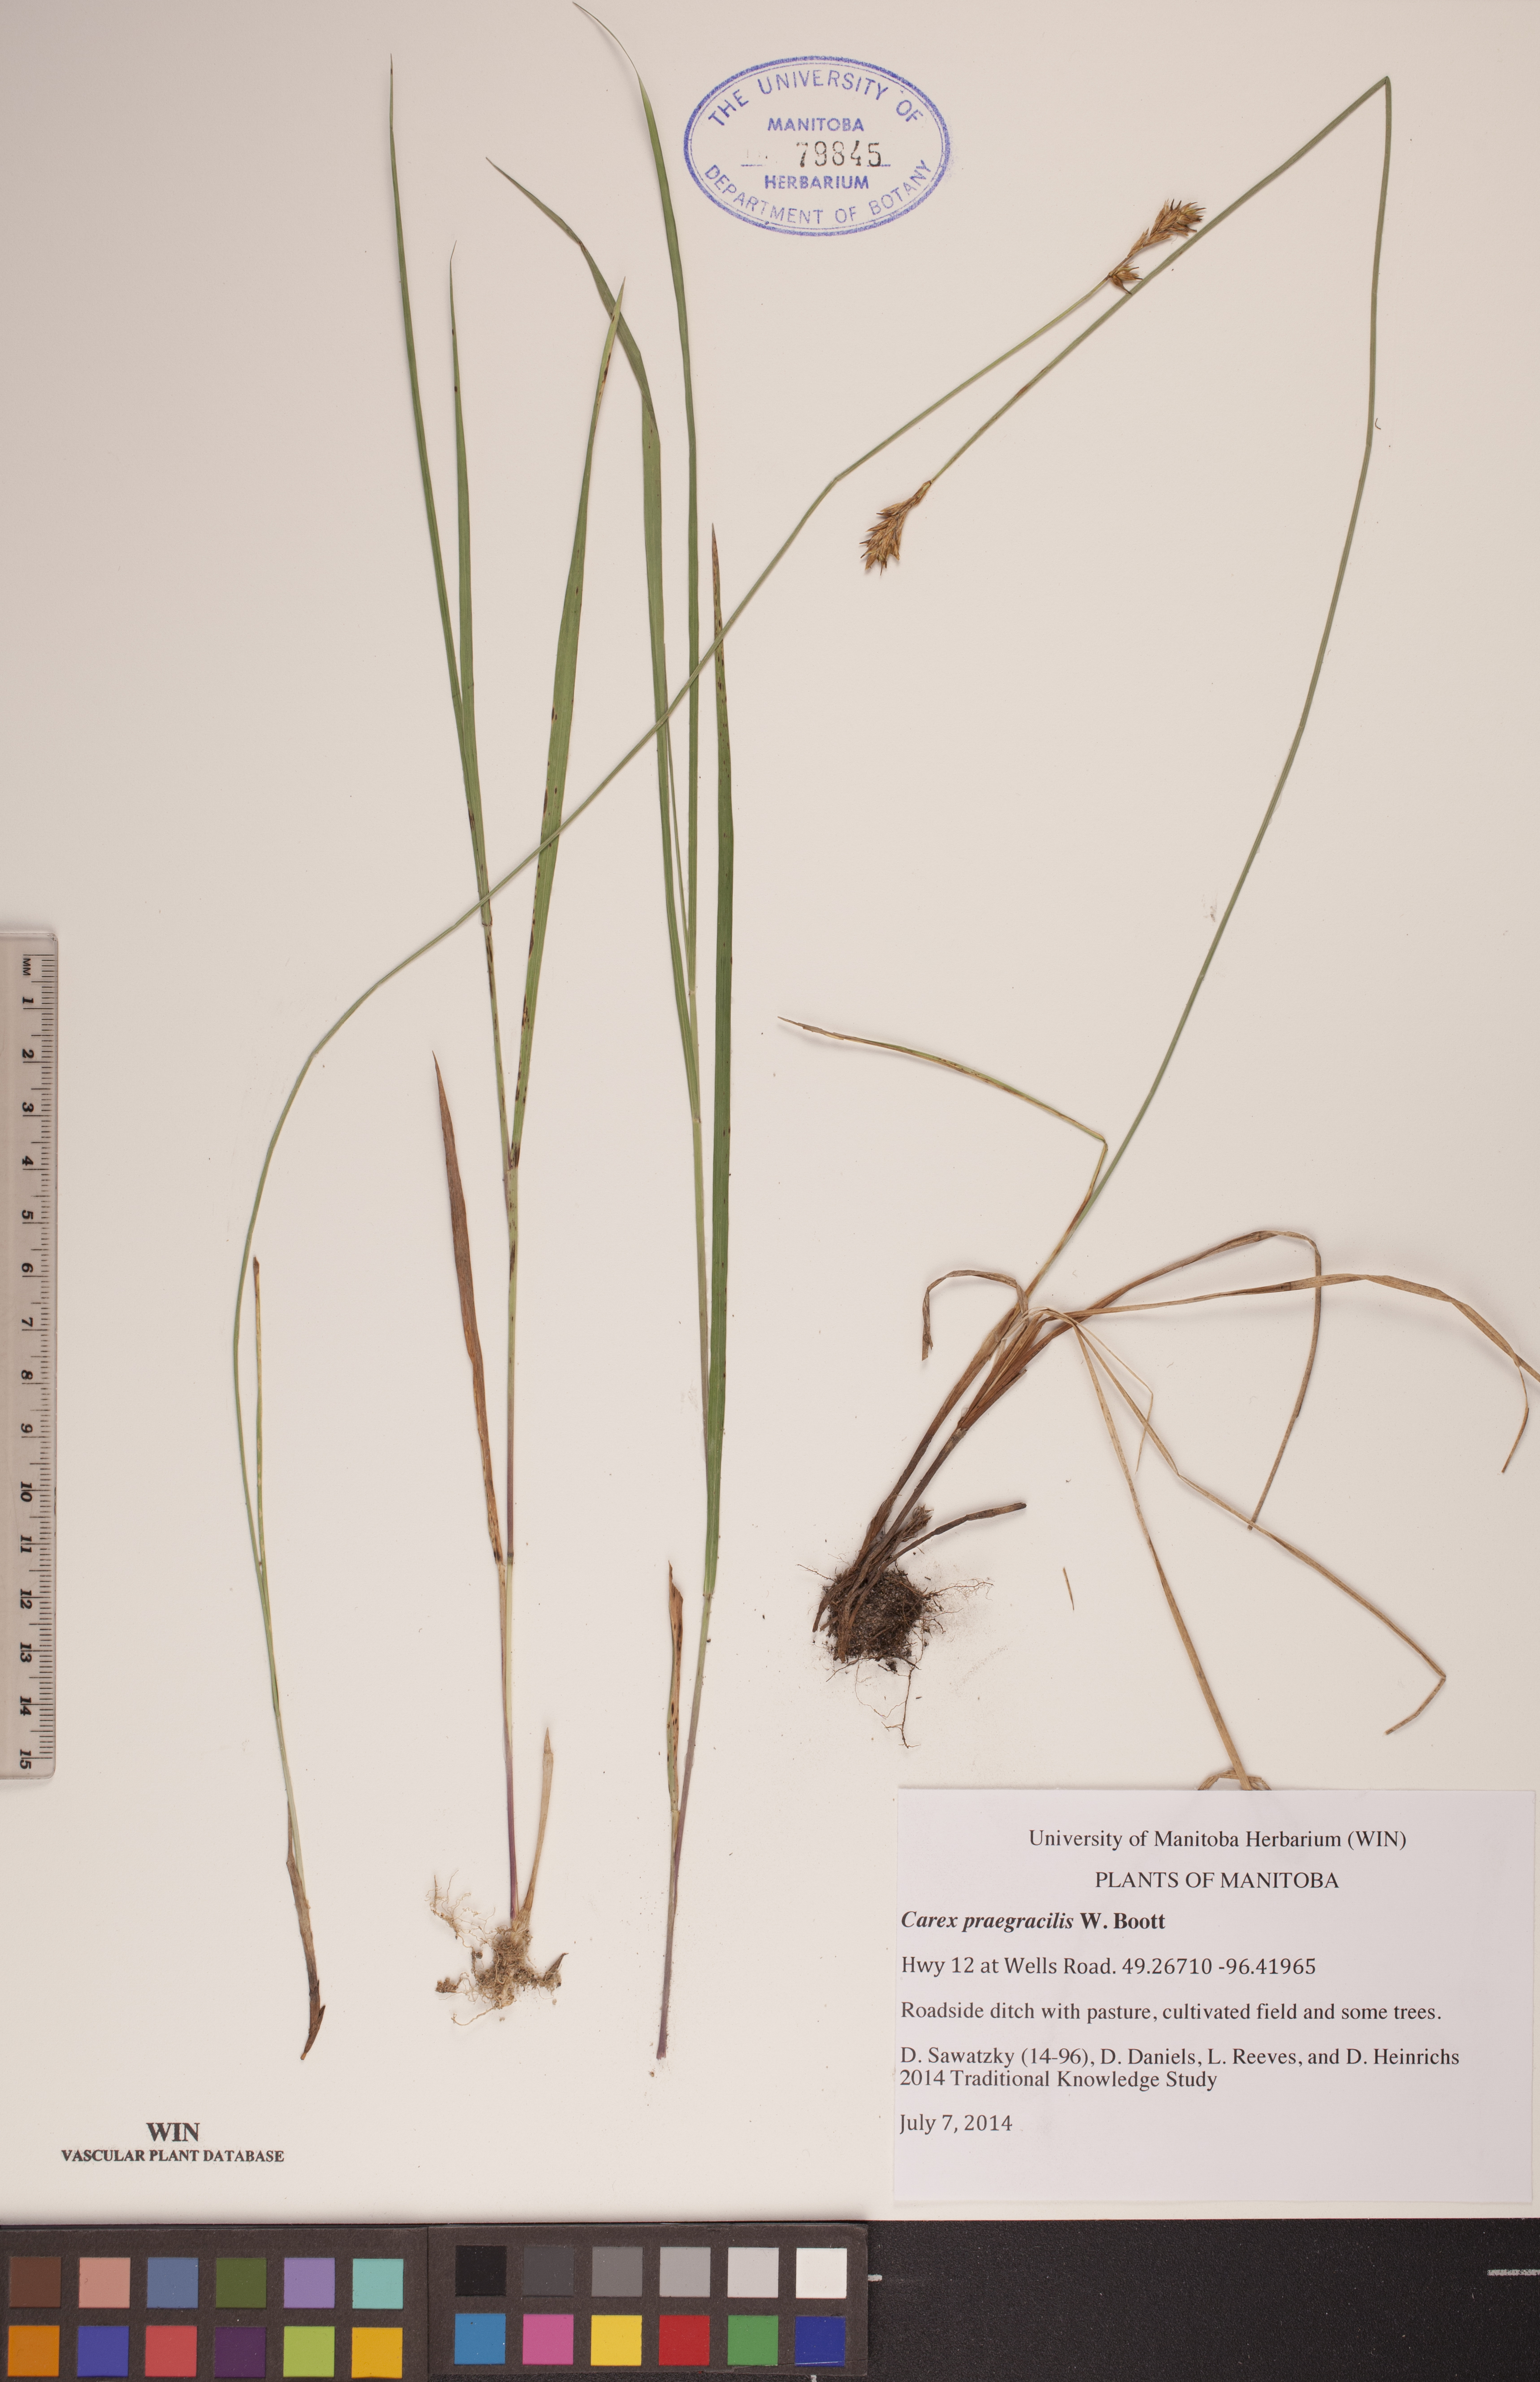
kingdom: Plantae
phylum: Tracheophyta
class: Liliopsida
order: Poales
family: Cyperaceae
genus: Carex
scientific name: Carex praegracilis
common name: Black creeper sedge
